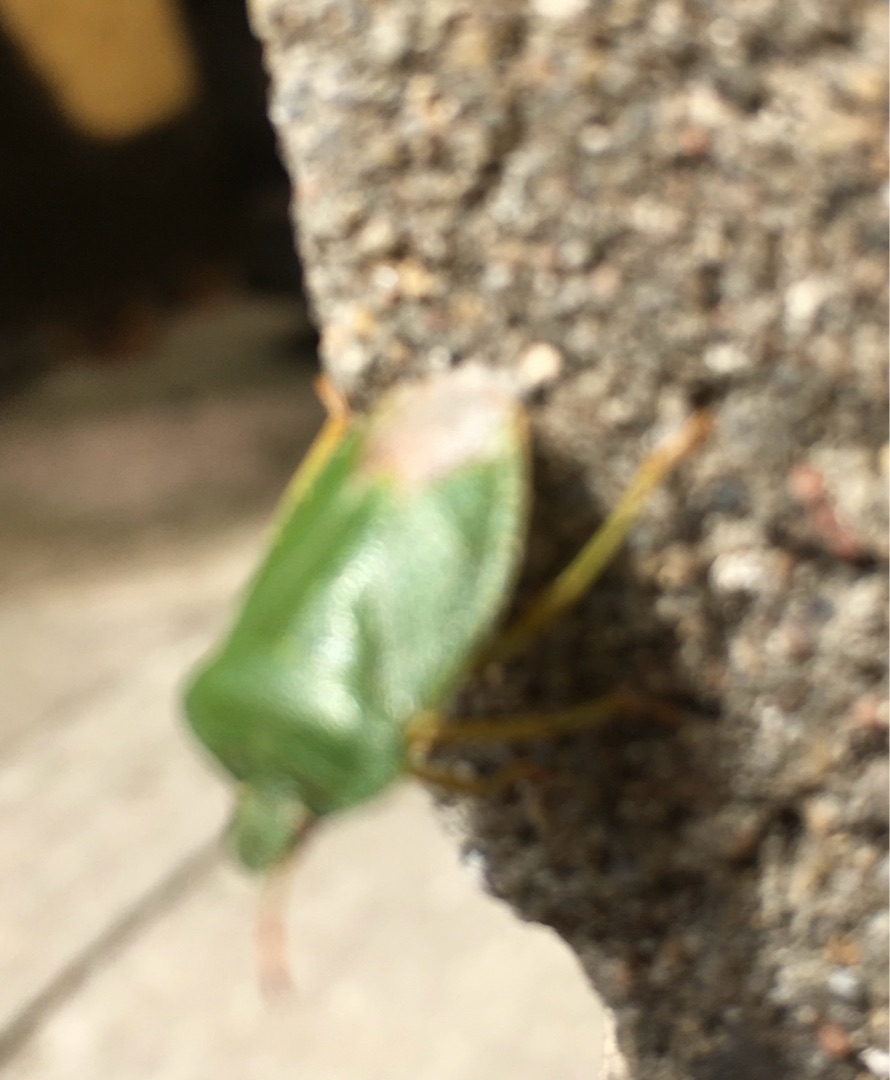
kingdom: Animalia
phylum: Arthropoda
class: Insecta
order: Hemiptera
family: Pentatomidae
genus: Palomena
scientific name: Palomena prasina
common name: Grøn bredtæge
